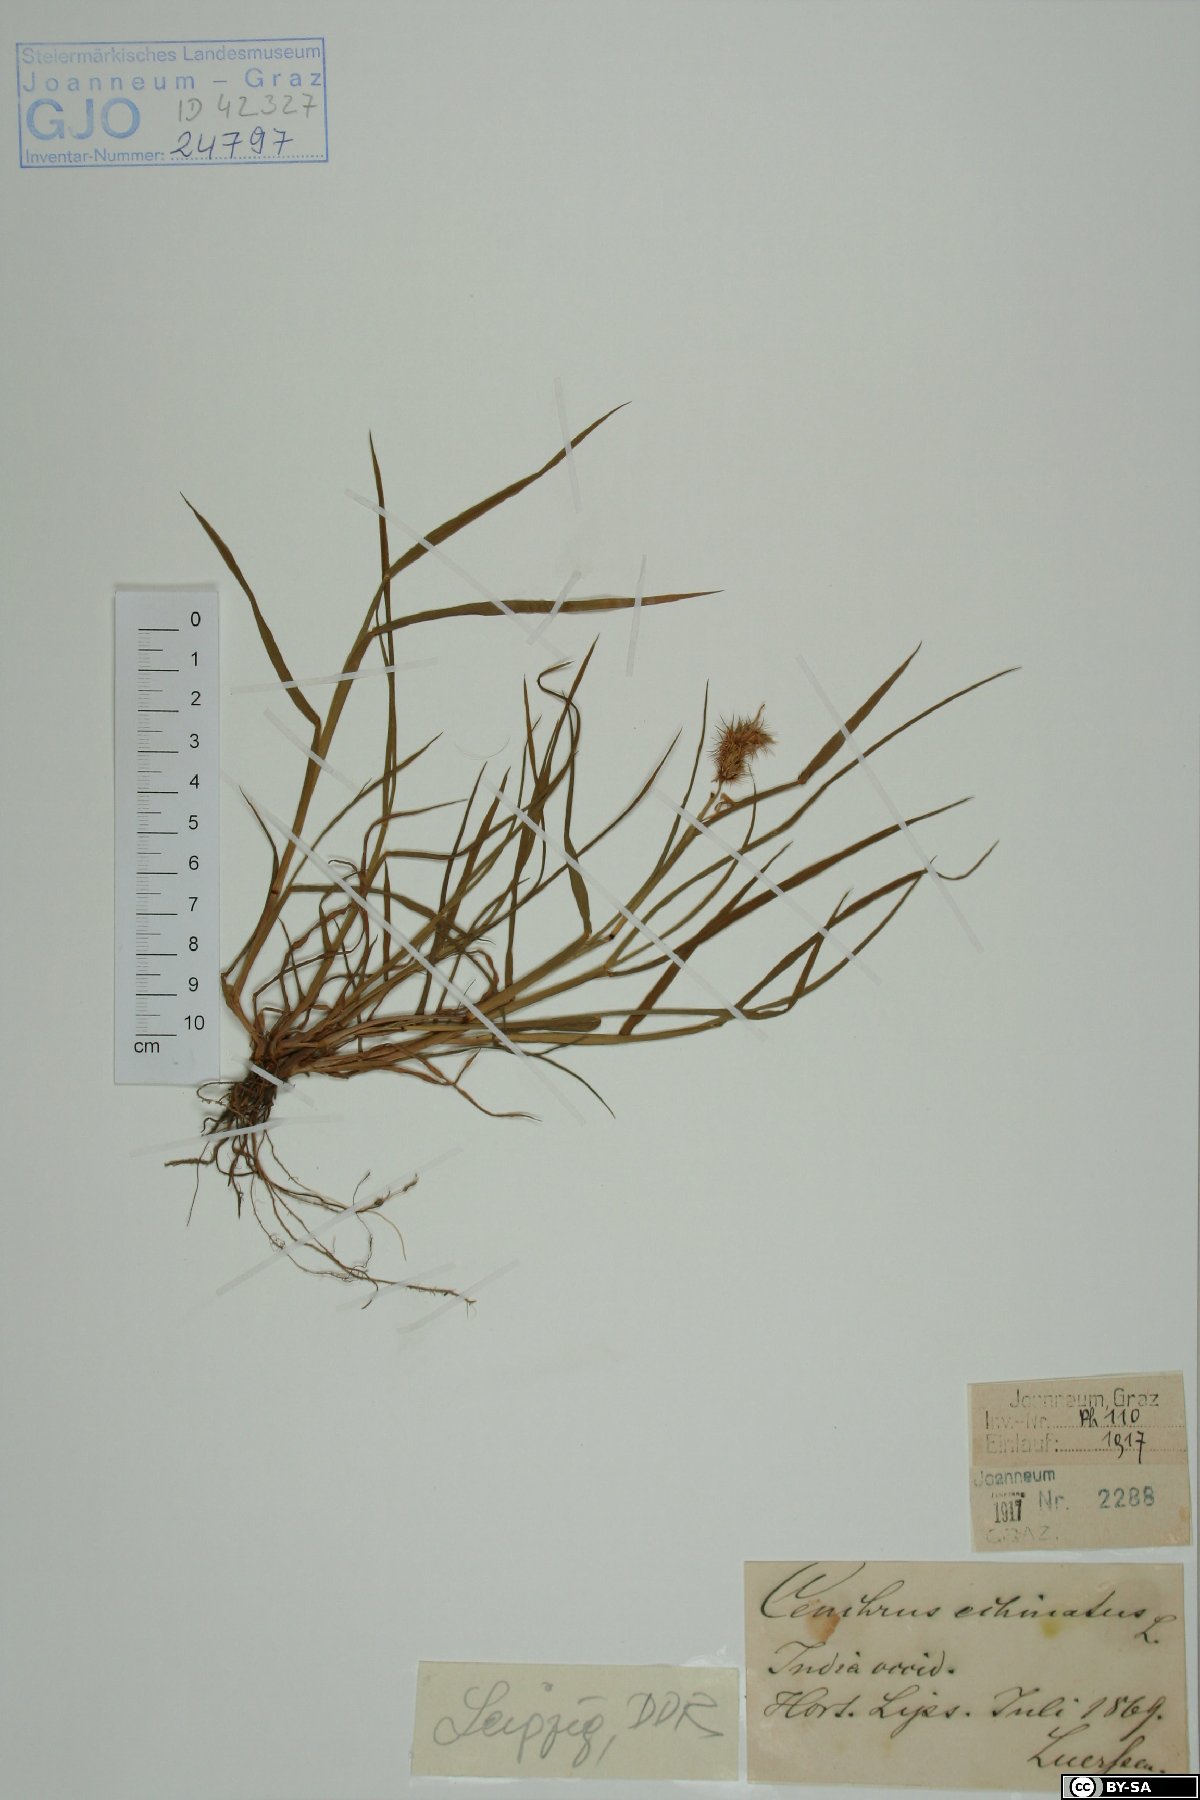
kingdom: Plantae
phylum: Tracheophyta
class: Liliopsida
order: Poales
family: Poaceae
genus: Cenchrus
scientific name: Cenchrus echinatus
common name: Southern sandbur
